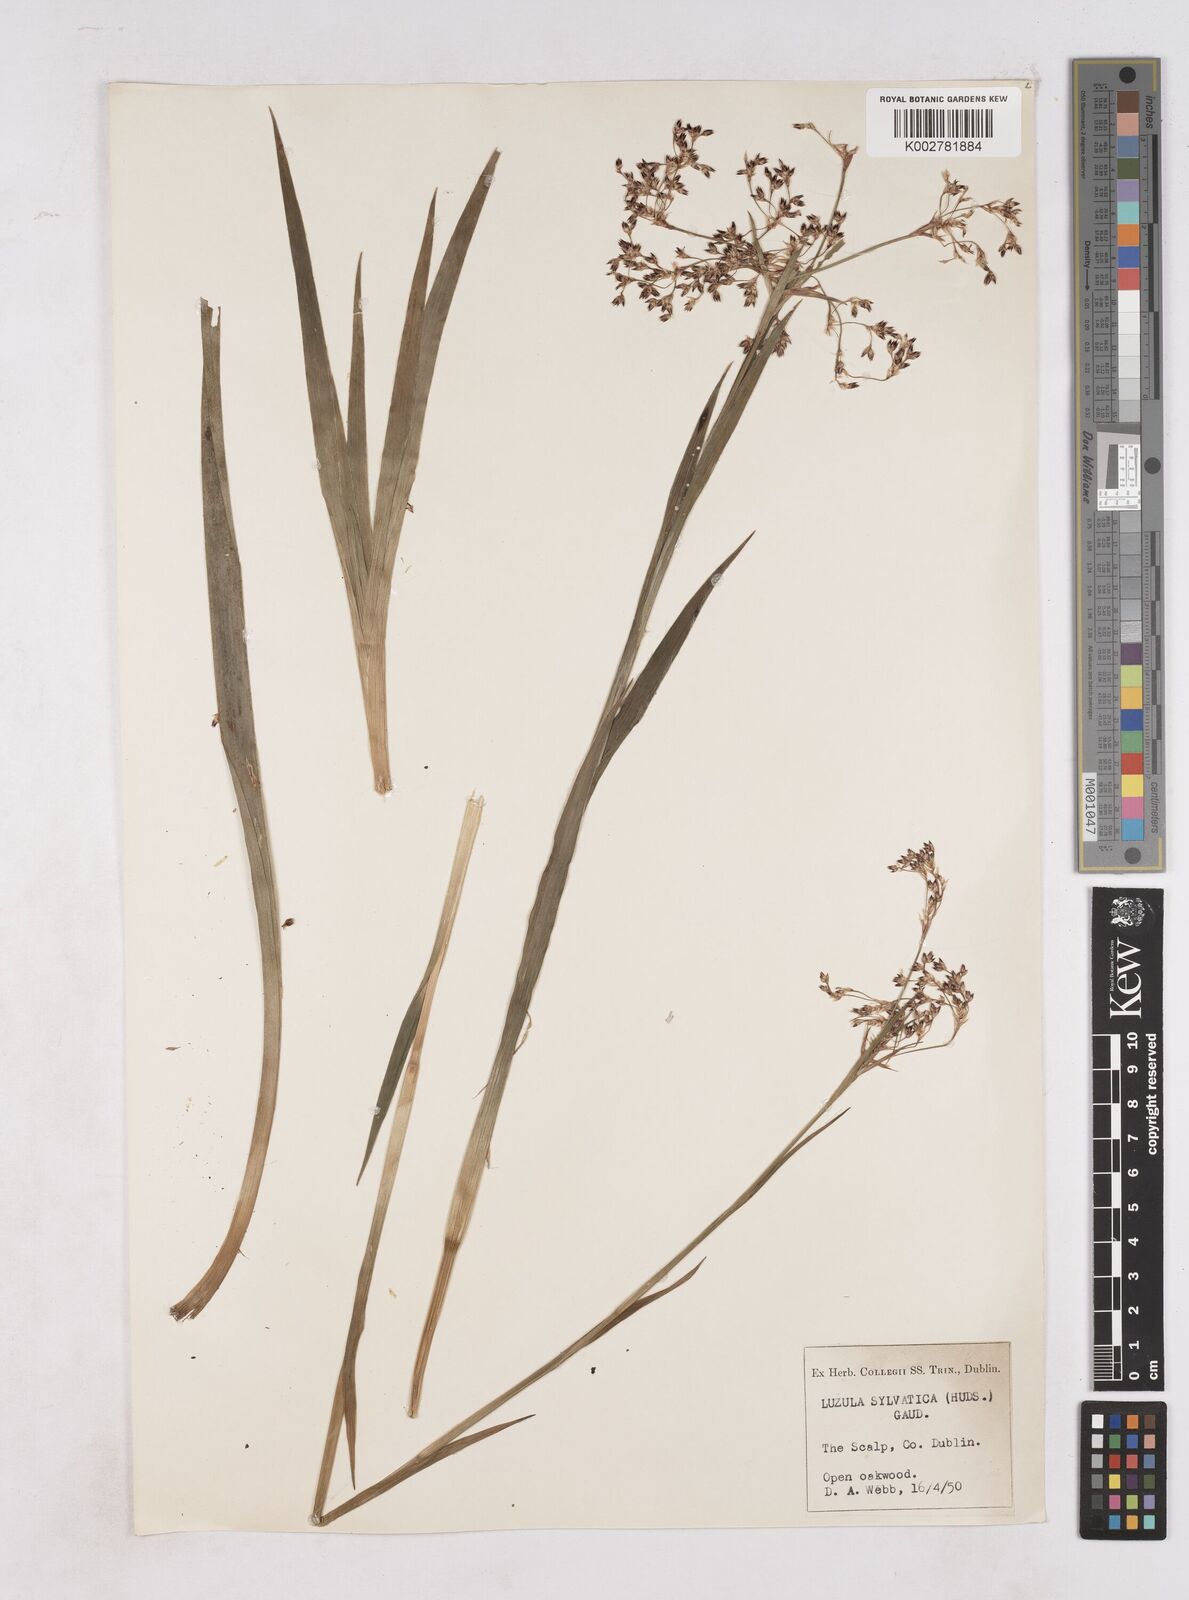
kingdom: Plantae
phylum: Tracheophyta
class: Liliopsida
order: Poales
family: Juncaceae
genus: Luzula
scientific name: Luzula sylvatica
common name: Great wood-rush
